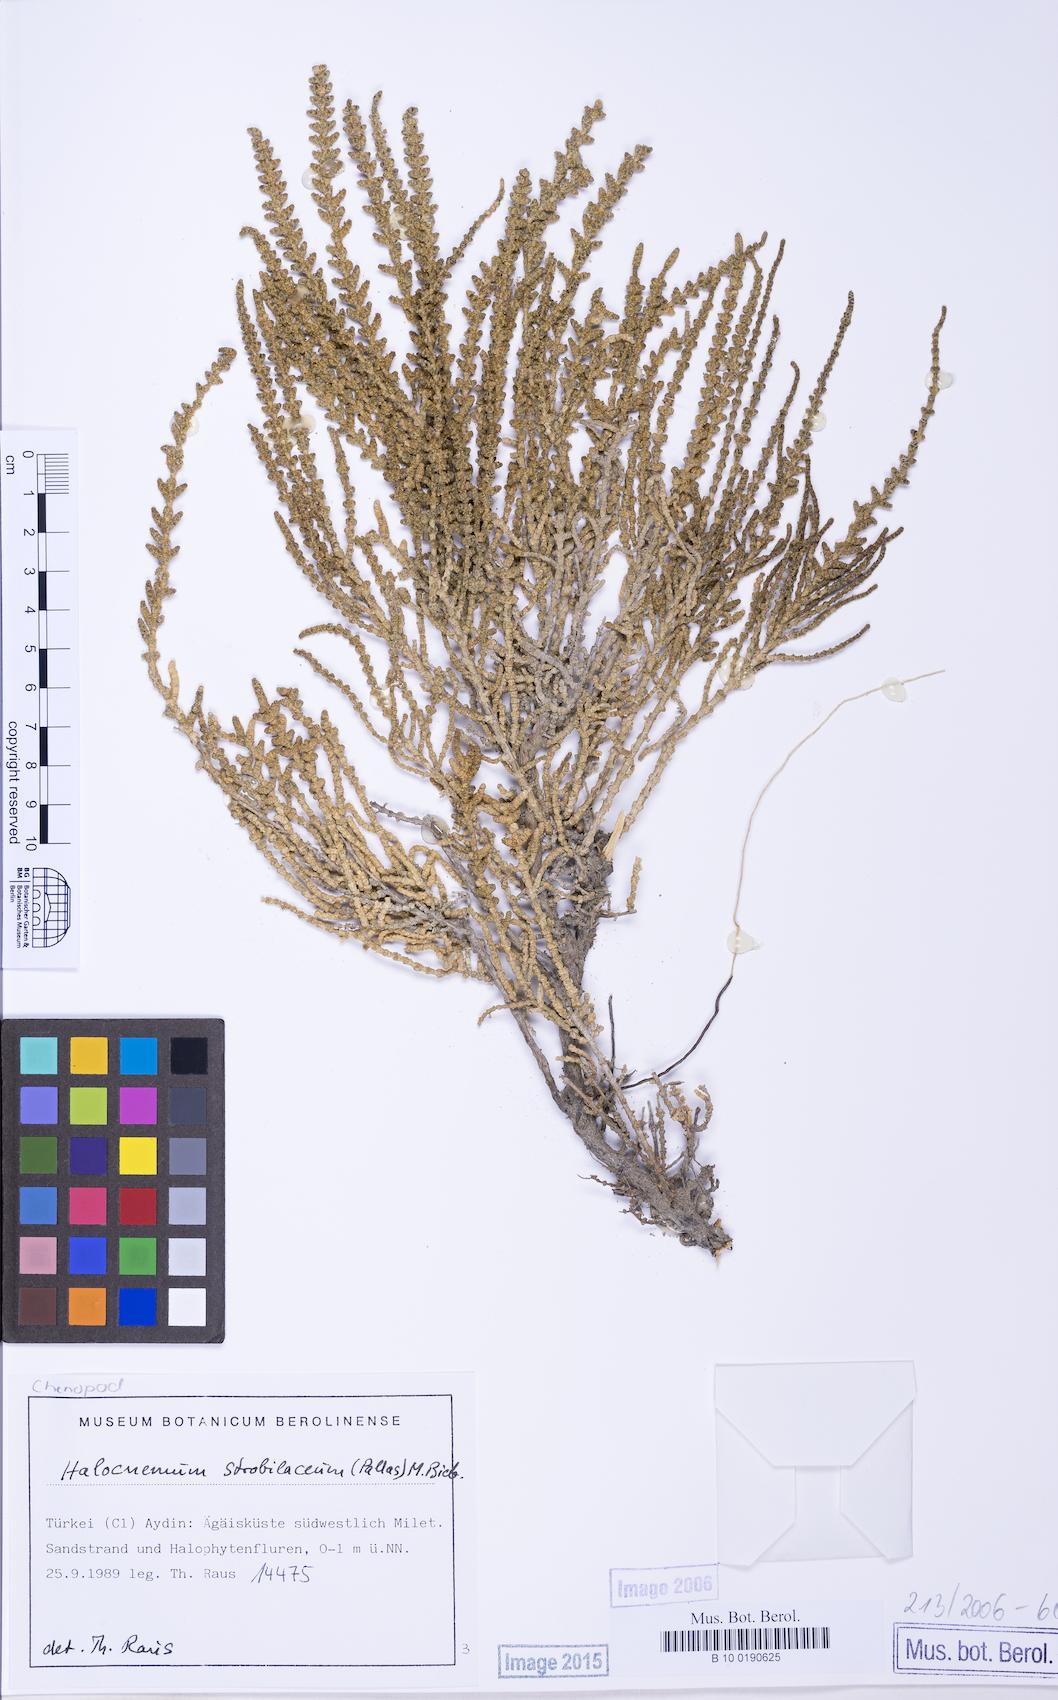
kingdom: Plantae
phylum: Tracheophyta
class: Magnoliopsida
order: Caryophyllales
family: Amaranthaceae
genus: Halocnemum
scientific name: Halocnemum strobilaceum
